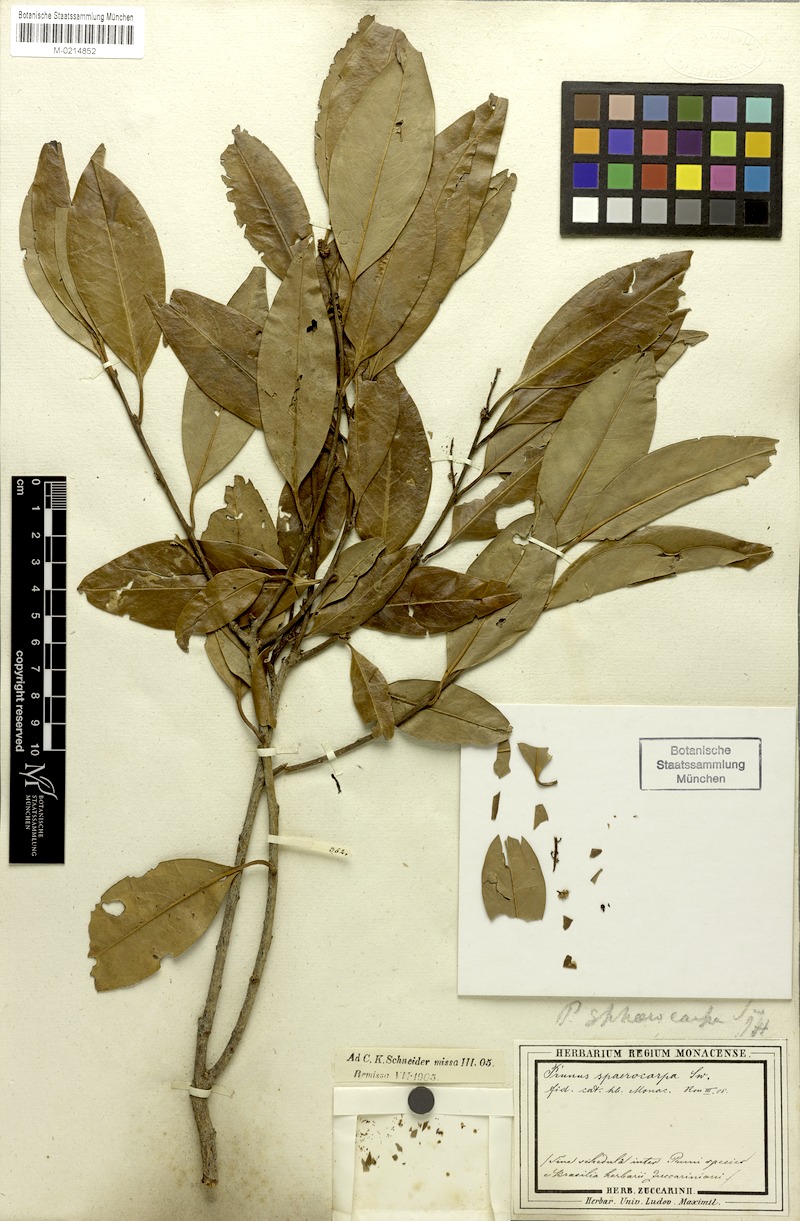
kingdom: Plantae
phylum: Tracheophyta
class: Magnoliopsida
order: Rosales
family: Rosaceae
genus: Prunus
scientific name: Prunus brasiliensis
